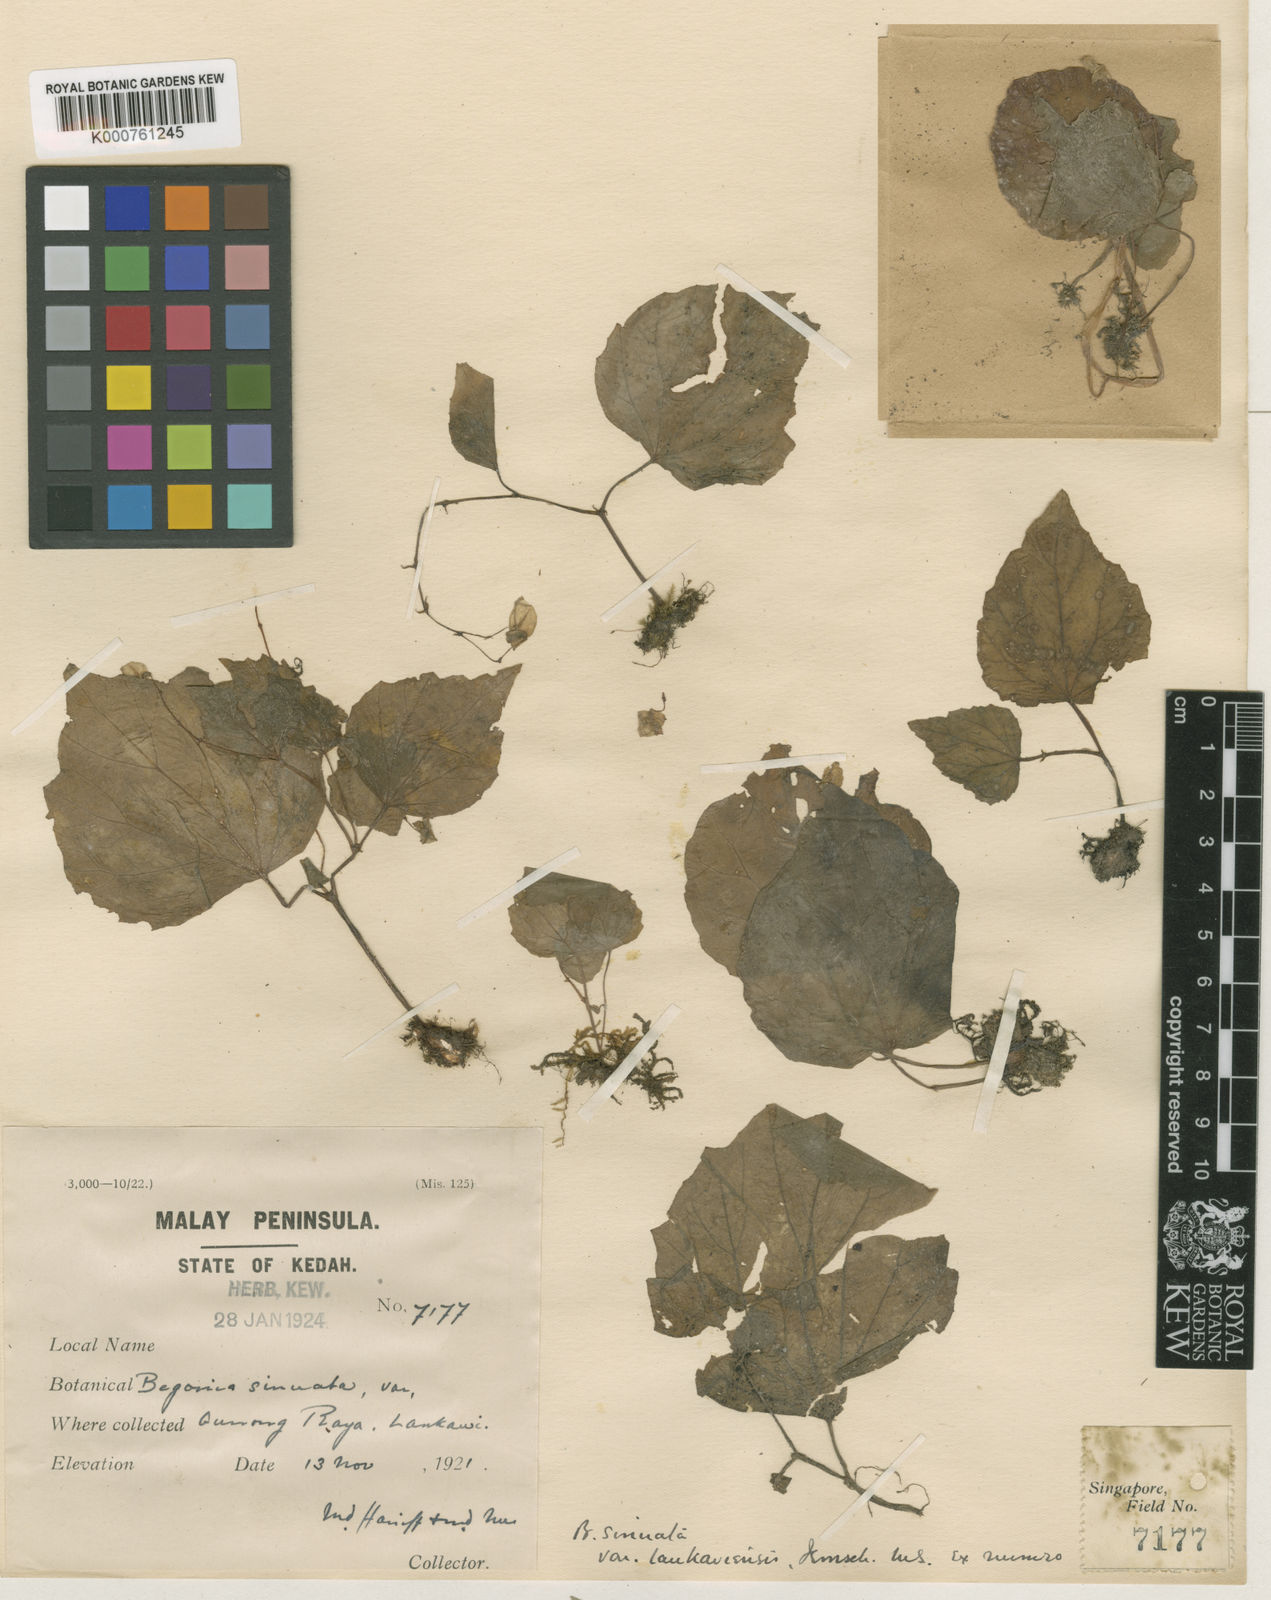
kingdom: Plantae
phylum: Tracheophyta
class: Magnoliopsida
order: Cucurbitales
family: Begoniaceae
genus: Begonia
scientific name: Begonia
